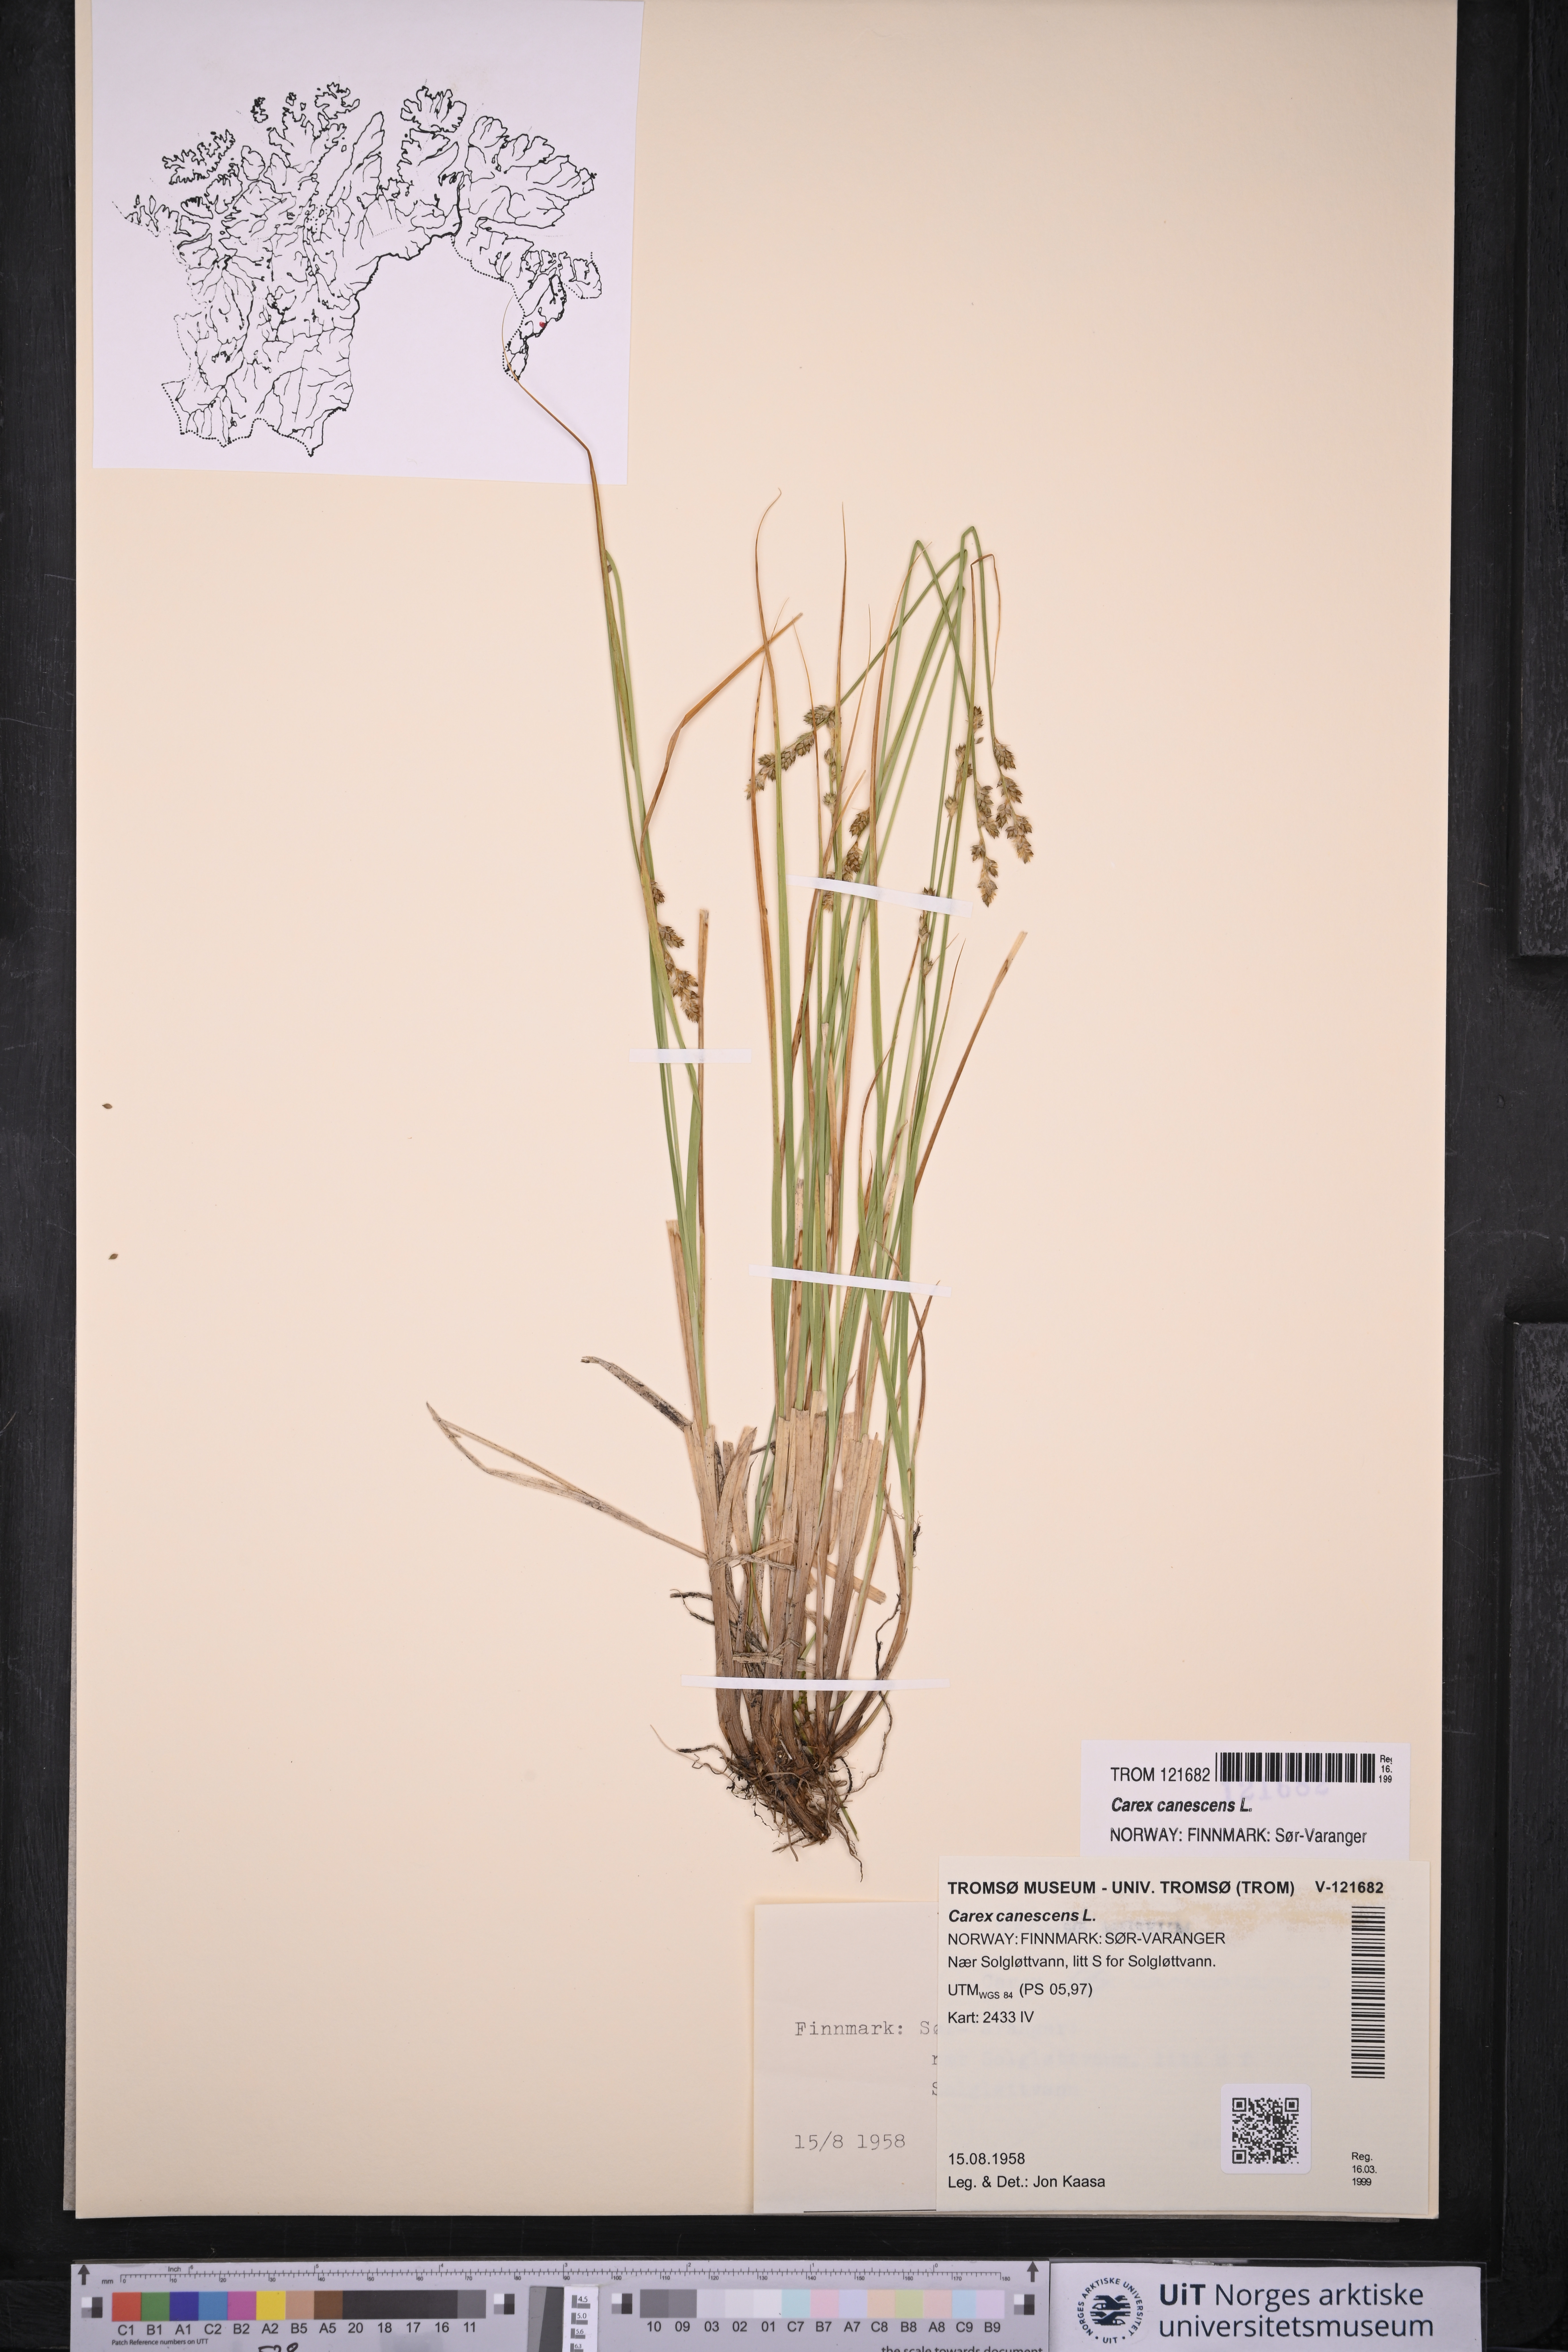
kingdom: Plantae
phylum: Tracheophyta
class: Liliopsida
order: Poales
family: Cyperaceae
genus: Carex
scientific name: Carex canescens
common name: White sedge
